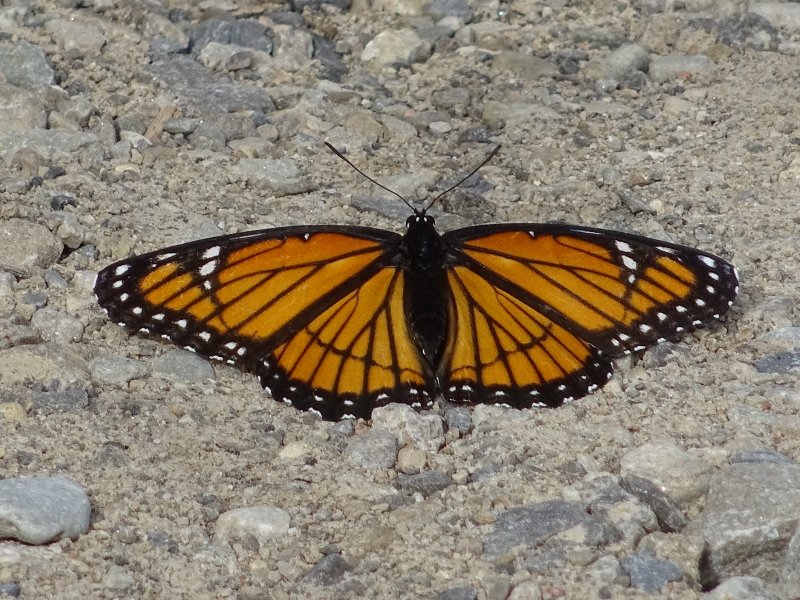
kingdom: Animalia
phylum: Arthropoda
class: Insecta
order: Lepidoptera
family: Nymphalidae
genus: Limenitis
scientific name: Limenitis archippus
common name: Viceroy
